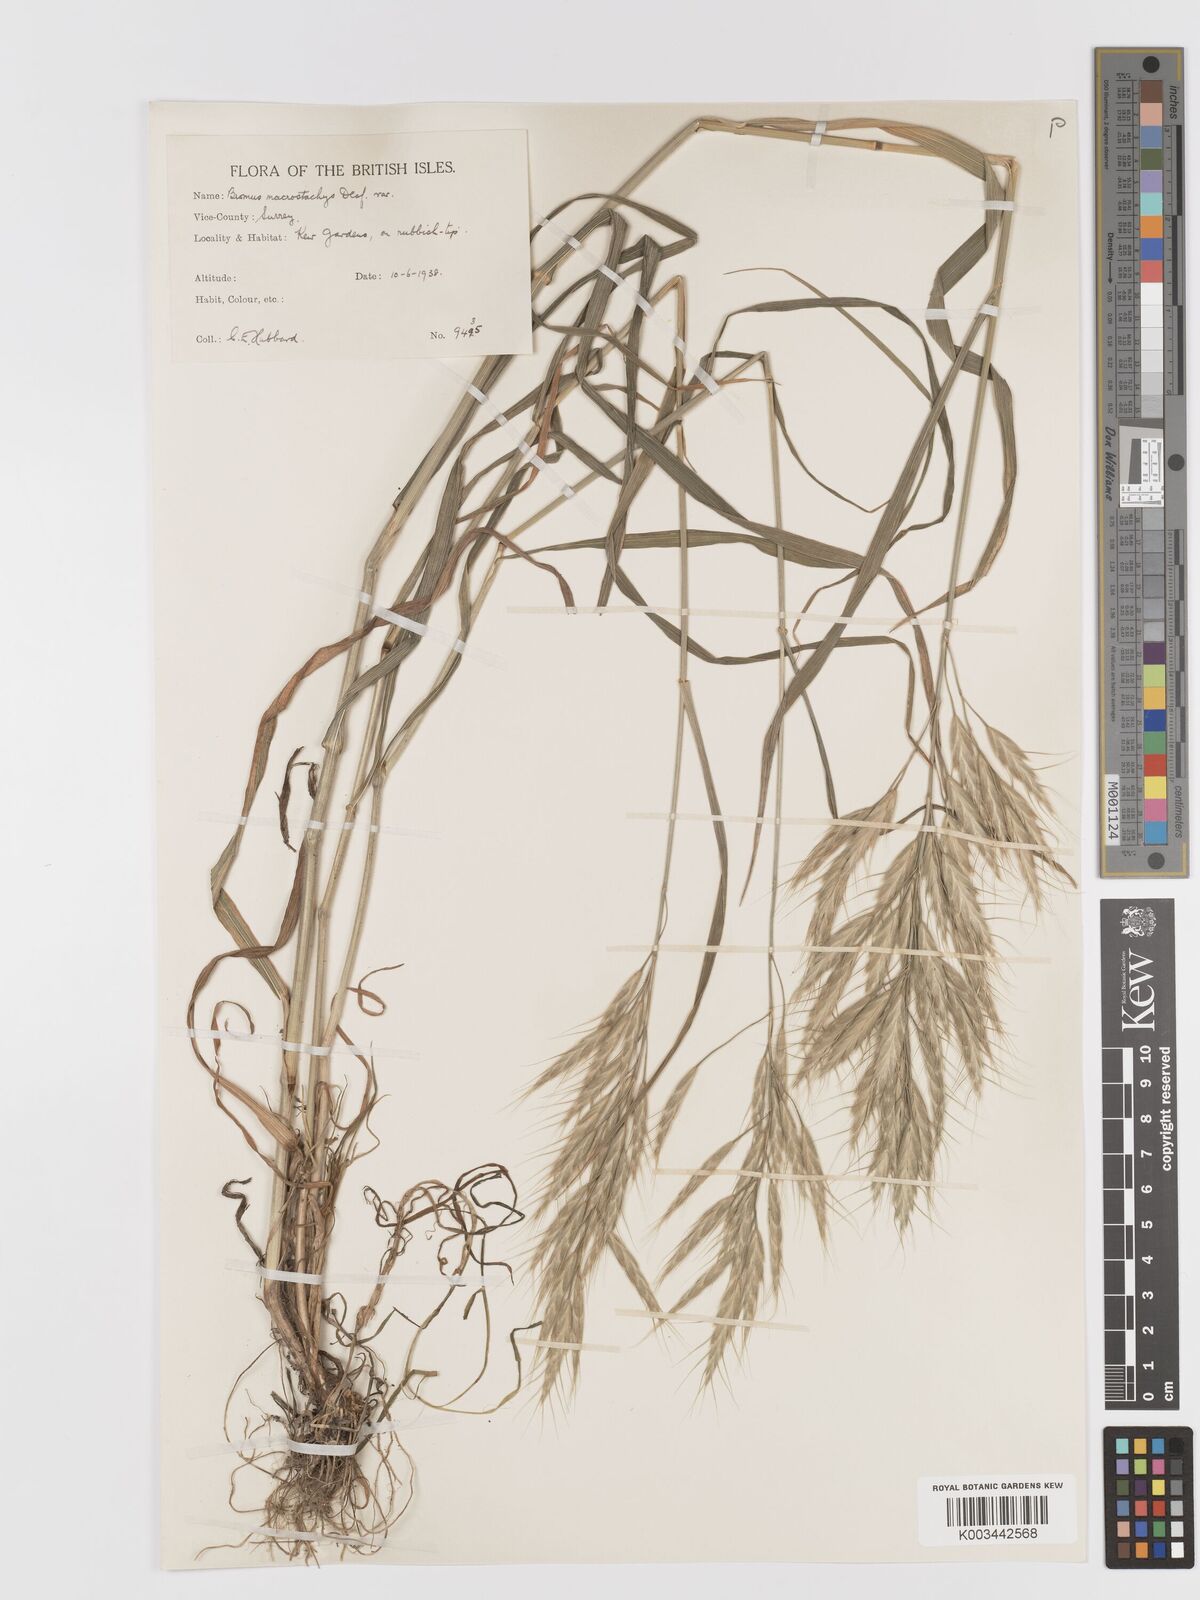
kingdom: Plantae
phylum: Tracheophyta
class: Liliopsida
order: Poales
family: Poaceae
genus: Bromus
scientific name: Bromus lanceolatus
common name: Mediterranean brome
